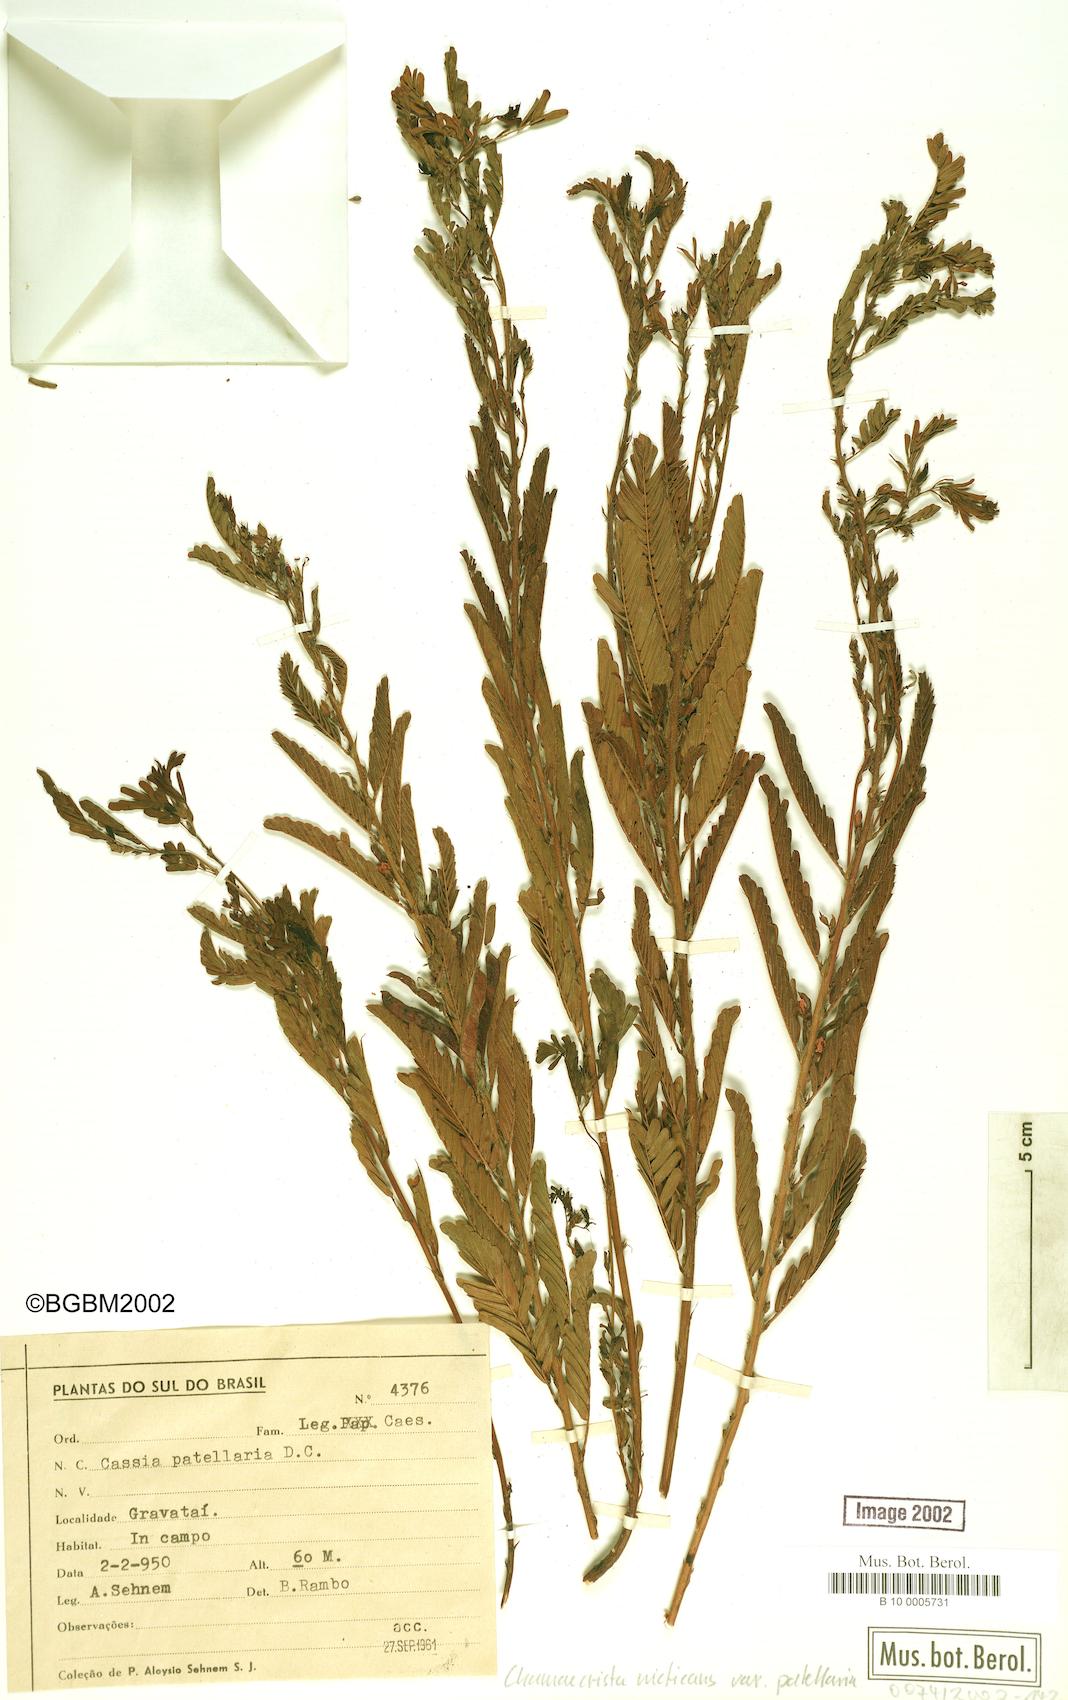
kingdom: Plantae
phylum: Tracheophyta
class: Magnoliopsida
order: Fabales
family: Fabaceae
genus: Chamaecrista
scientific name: Chamaecrista nictitans
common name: Sensitive cassia
